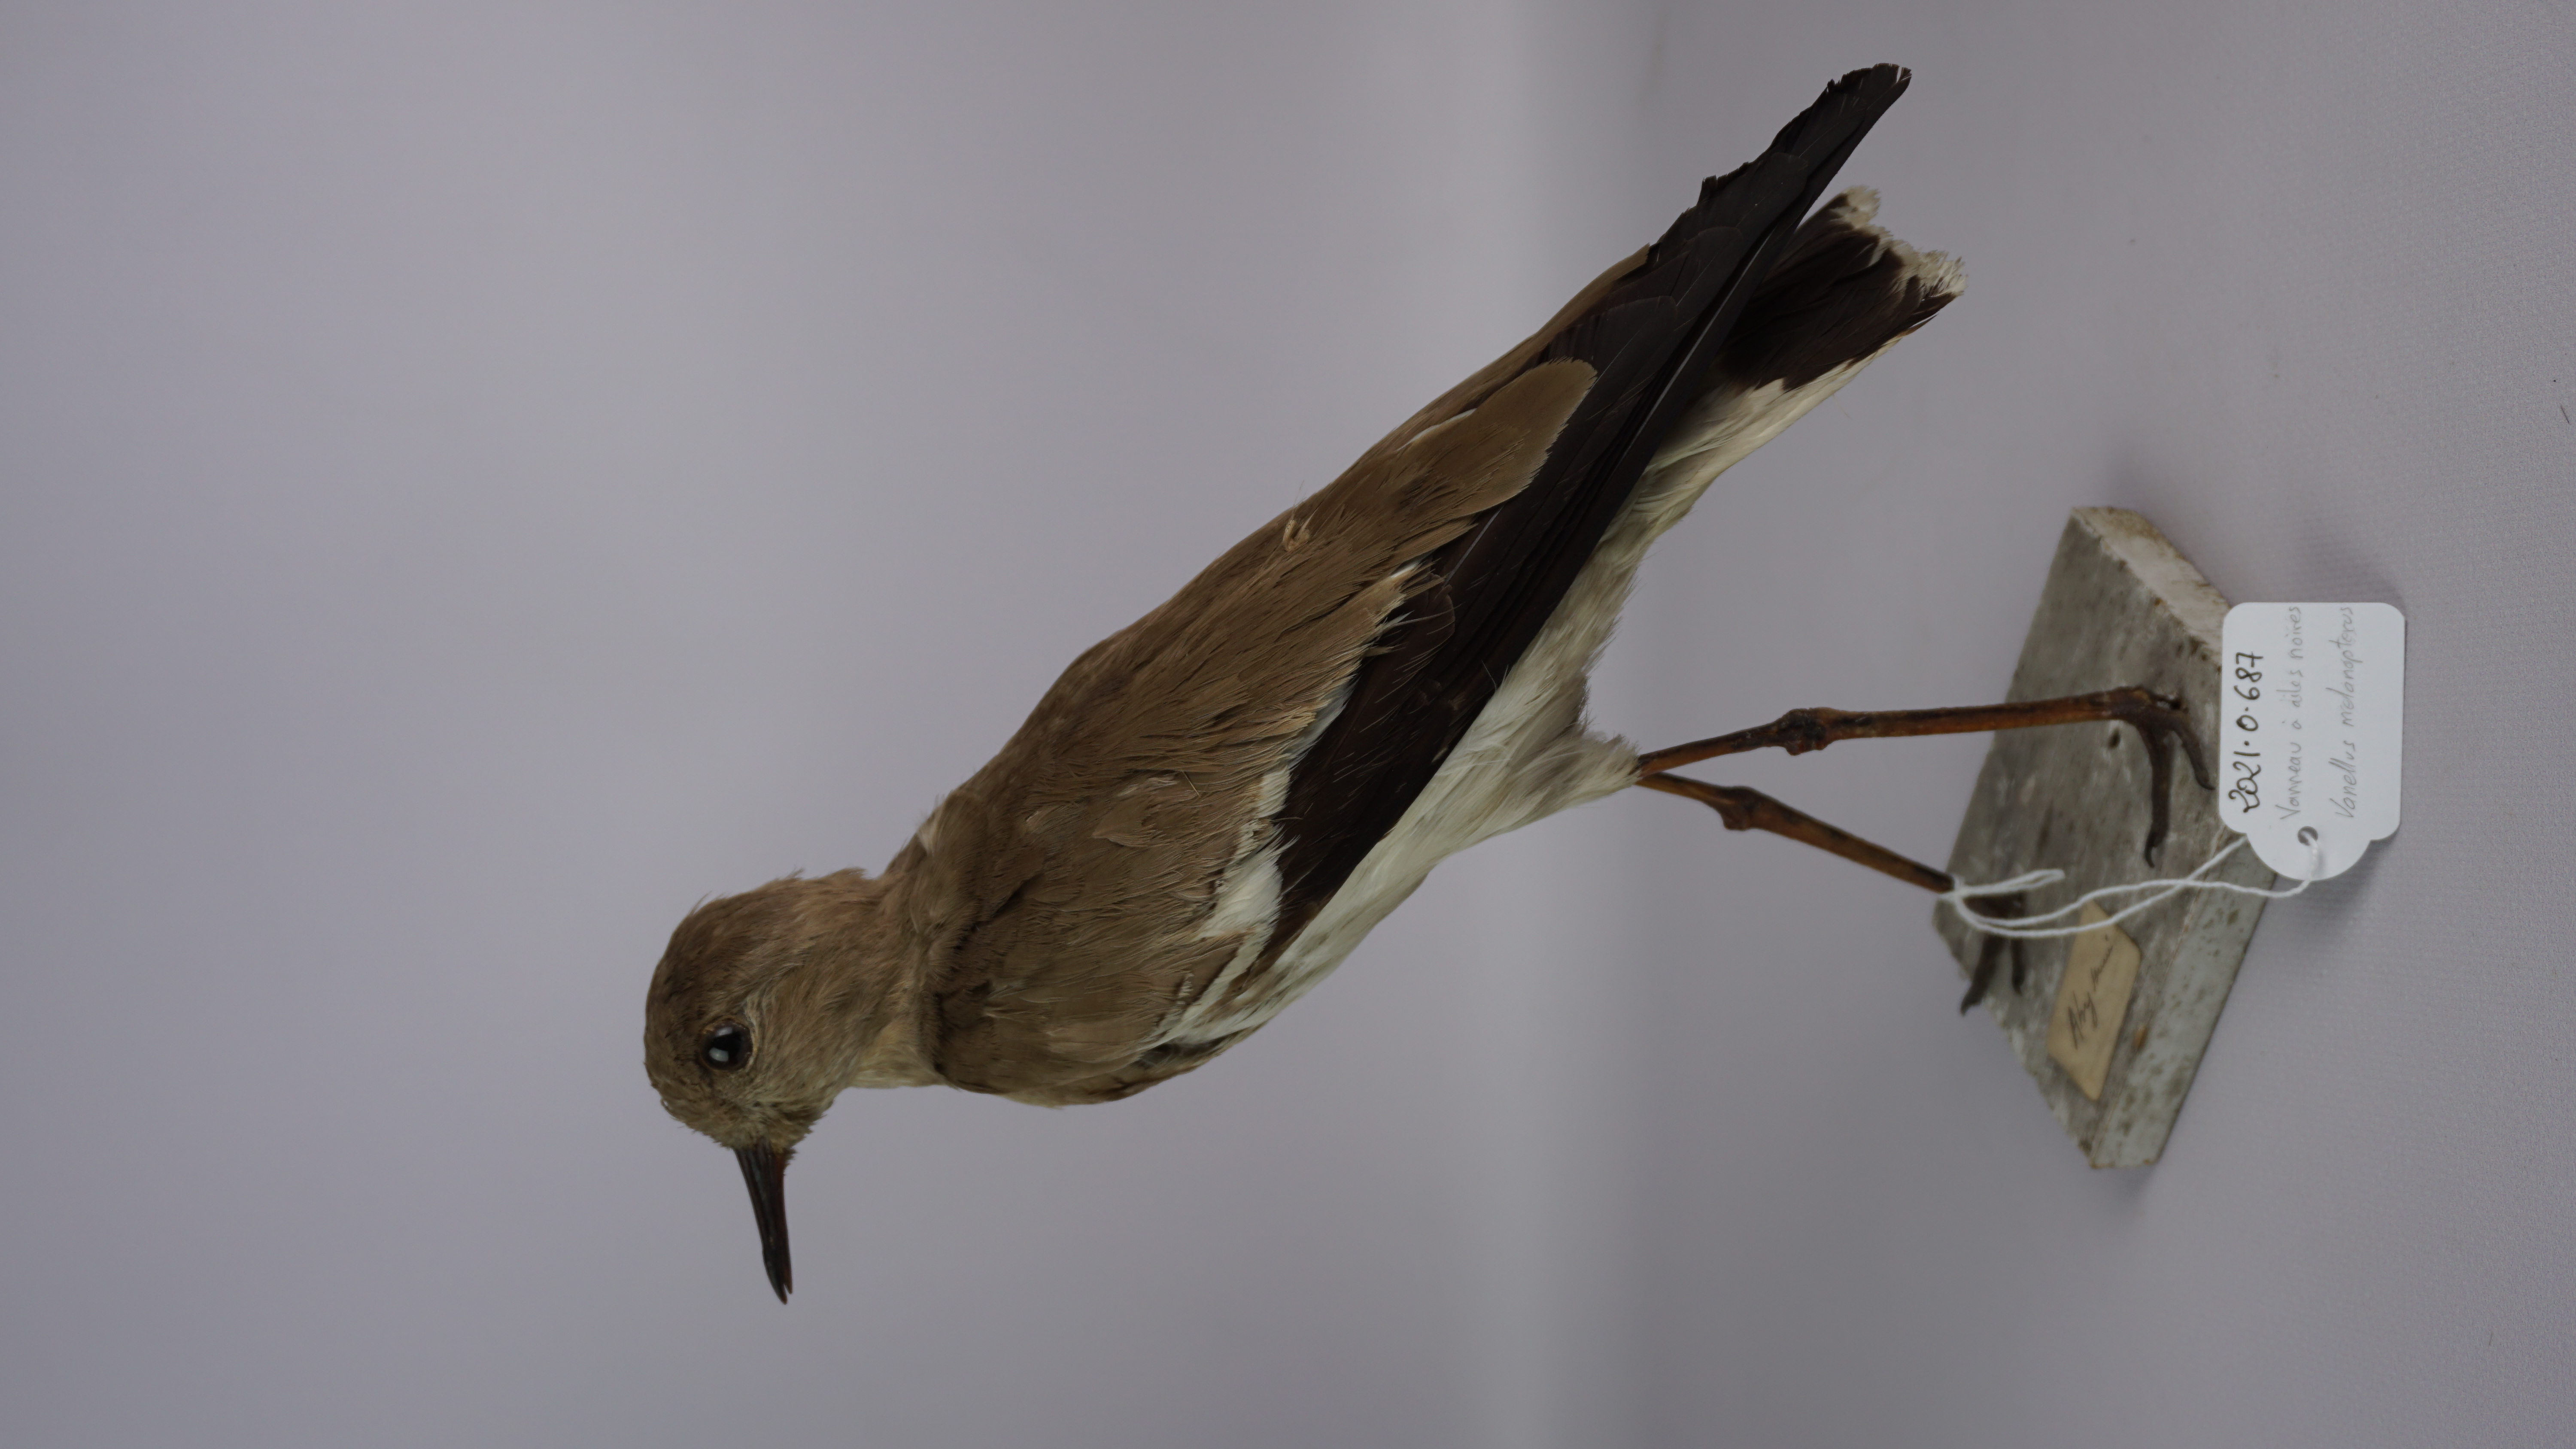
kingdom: Animalia
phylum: Chordata
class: Aves
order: Charadriiformes
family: Charadriidae
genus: Vanellus
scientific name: Vanellus melanopterus
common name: Black-winged lapwing
